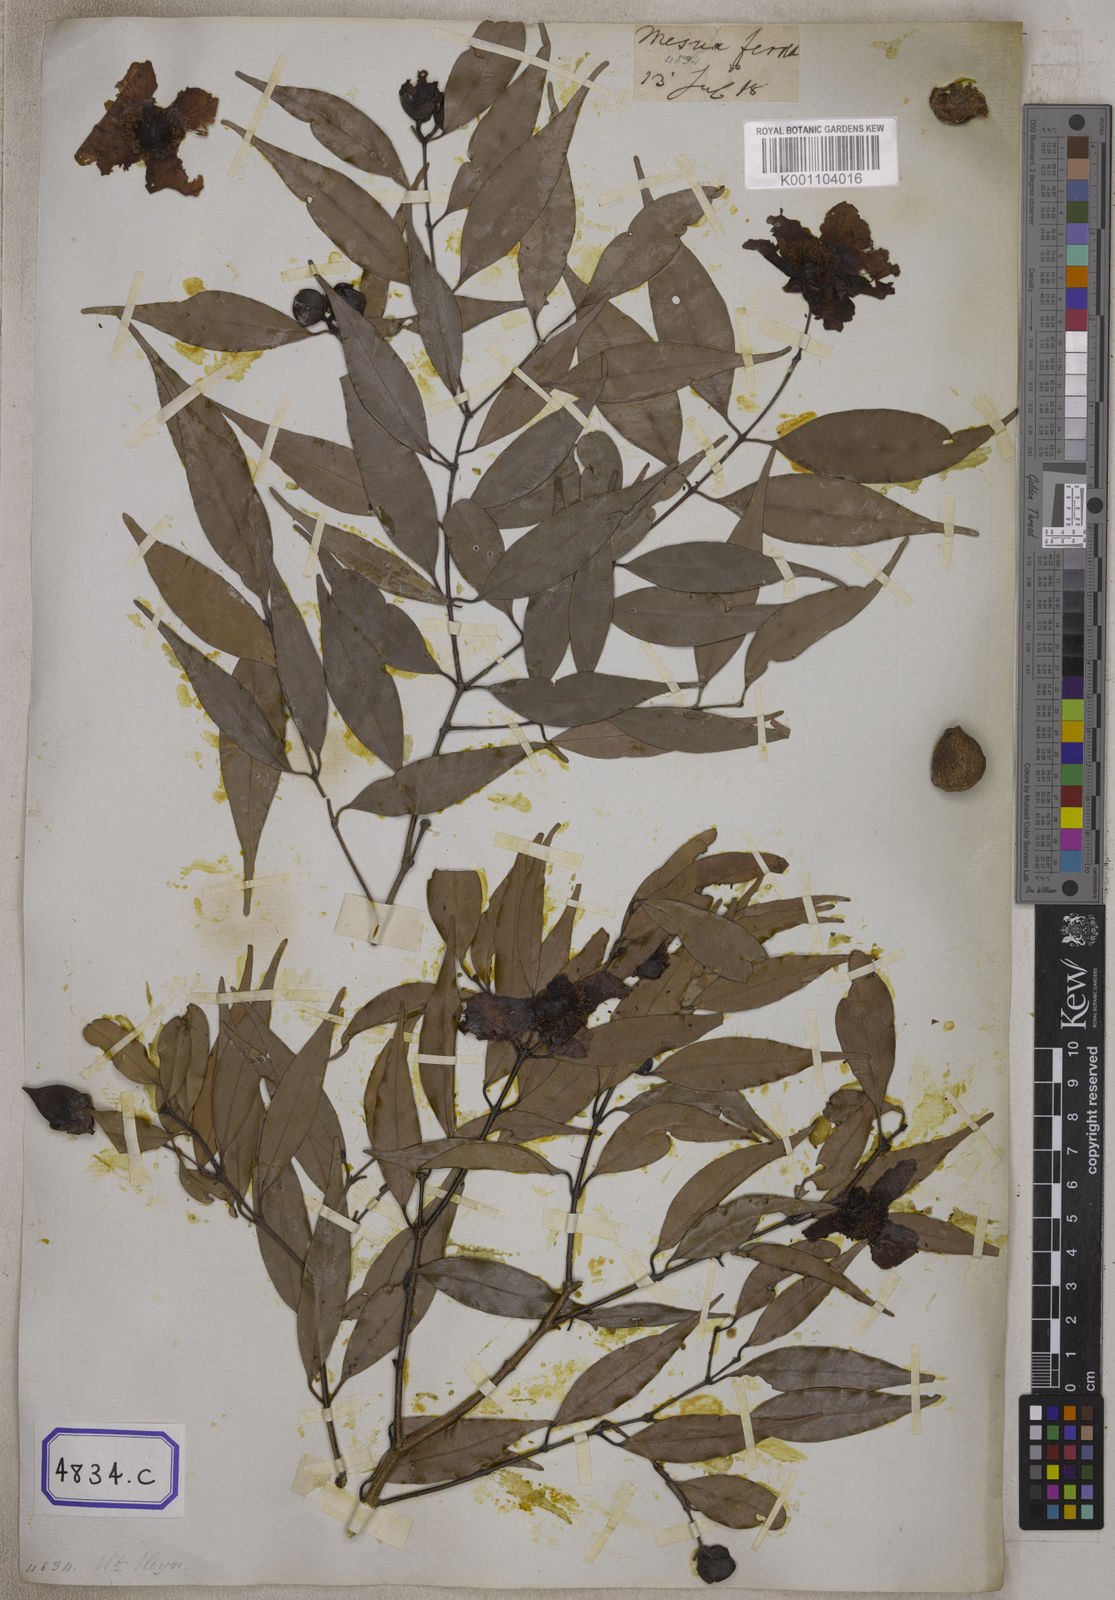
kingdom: Plantae
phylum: Tracheophyta
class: Magnoliopsida
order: Malpighiales
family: Calophyllaceae
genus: Mesua
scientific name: Mesua ferrea
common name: Mesua
